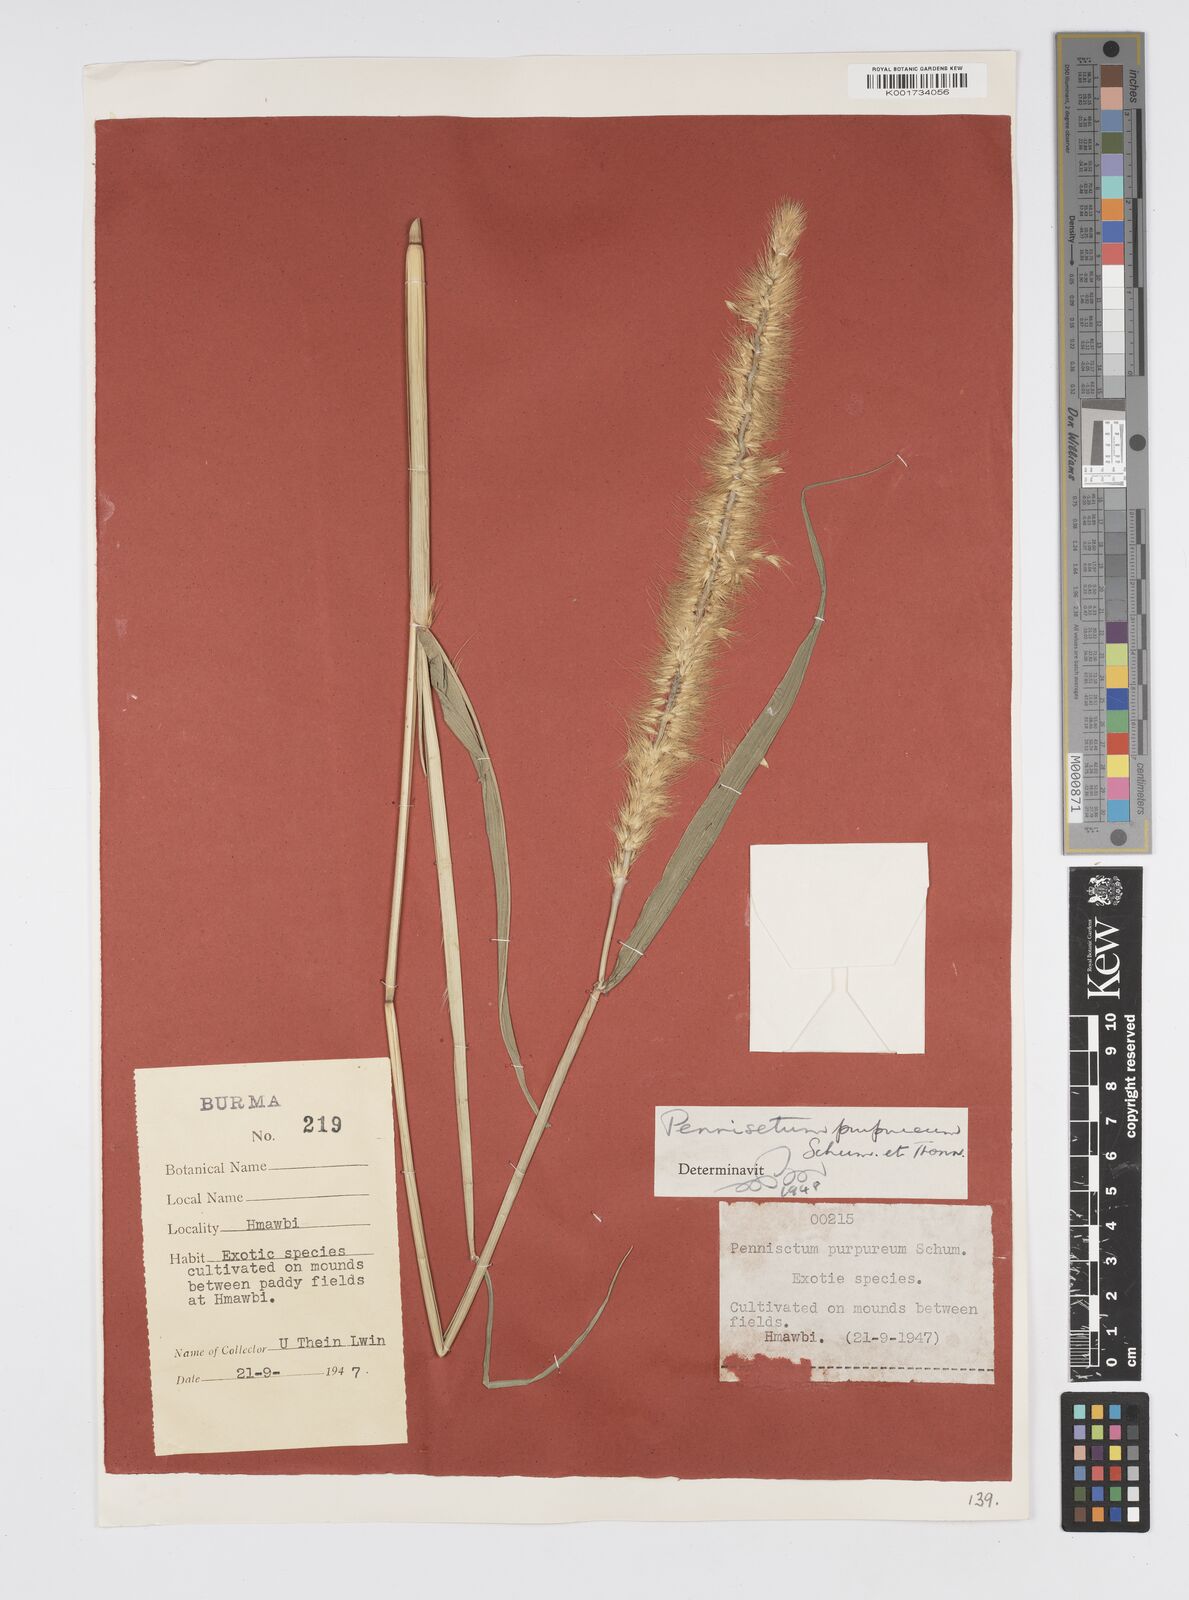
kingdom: Plantae
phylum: Tracheophyta
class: Liliopsida
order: Poales
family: Poaceae
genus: Cenchrus
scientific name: Cenchrus purpureus
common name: Elephant grass
